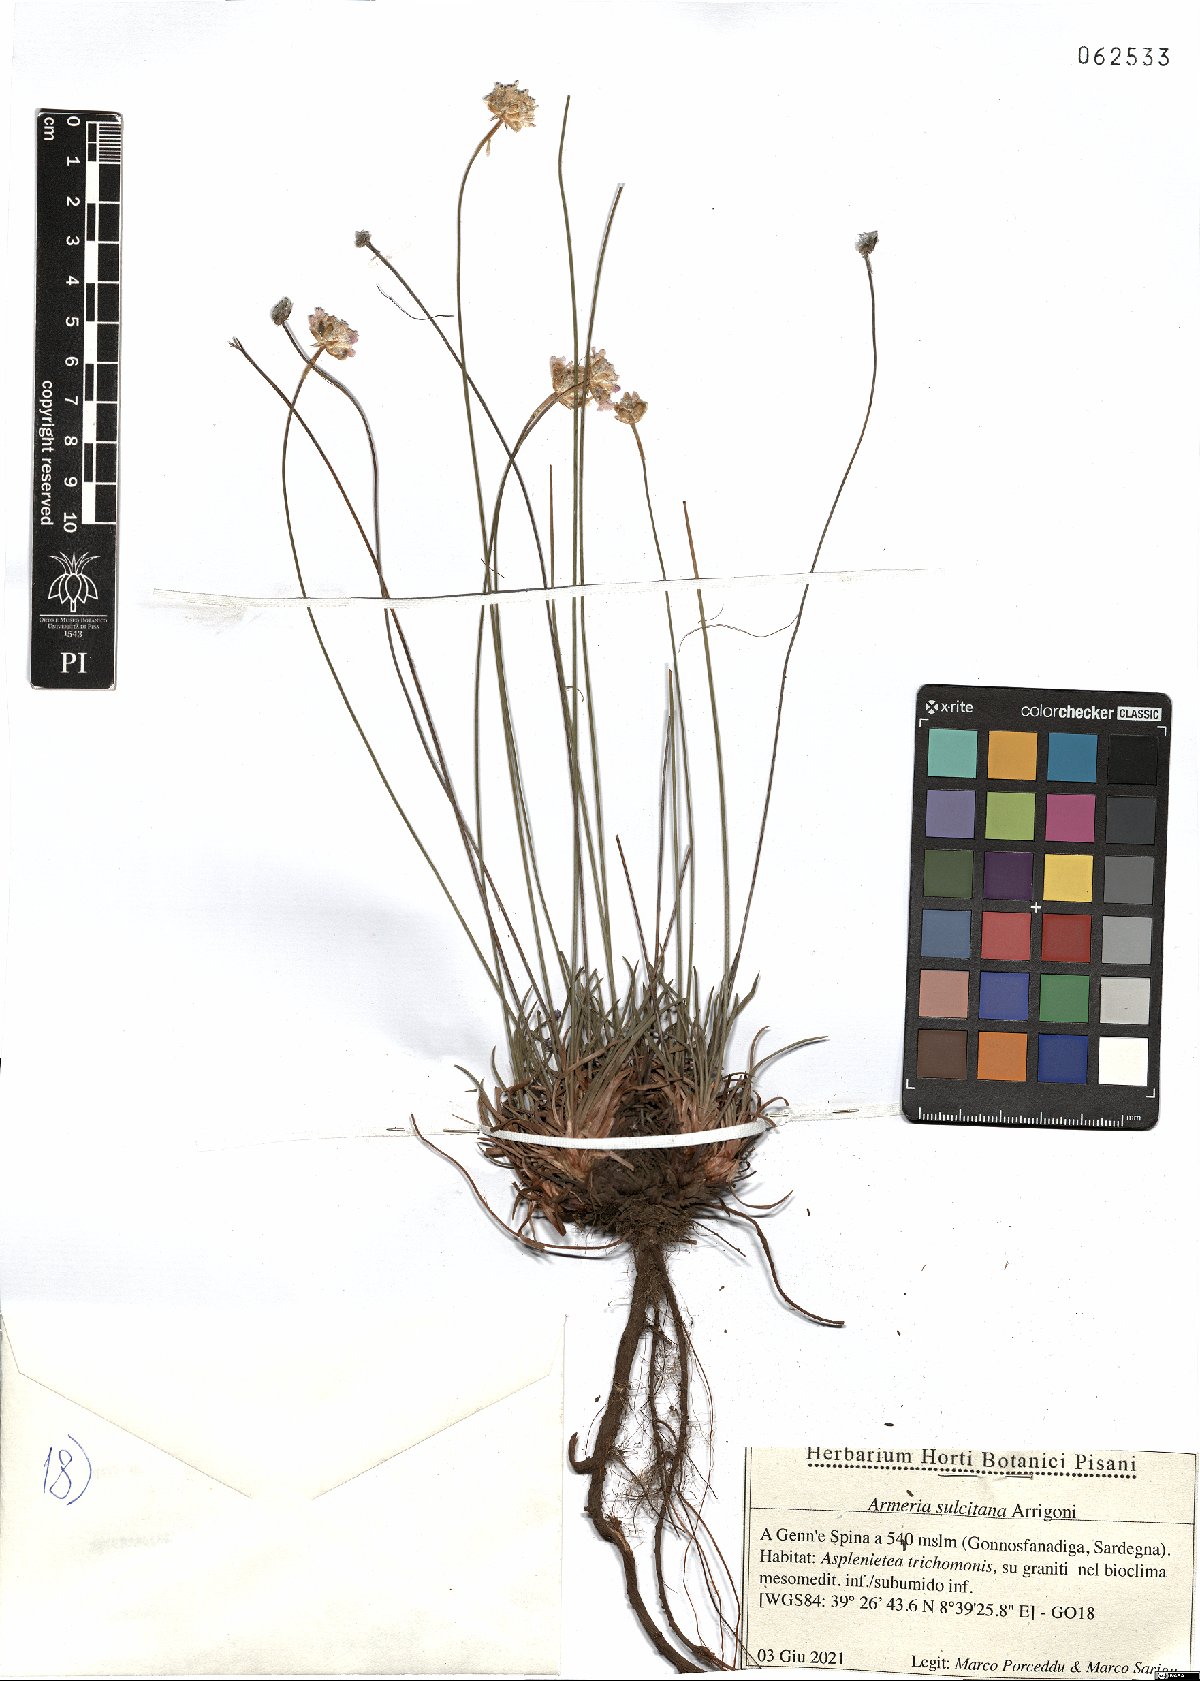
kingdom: Plantae
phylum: Tracheophyta
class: Magnoliopsida
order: Caryophyllales
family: Plumbaginaceae
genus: Armeria
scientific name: Armeria sulcitana
